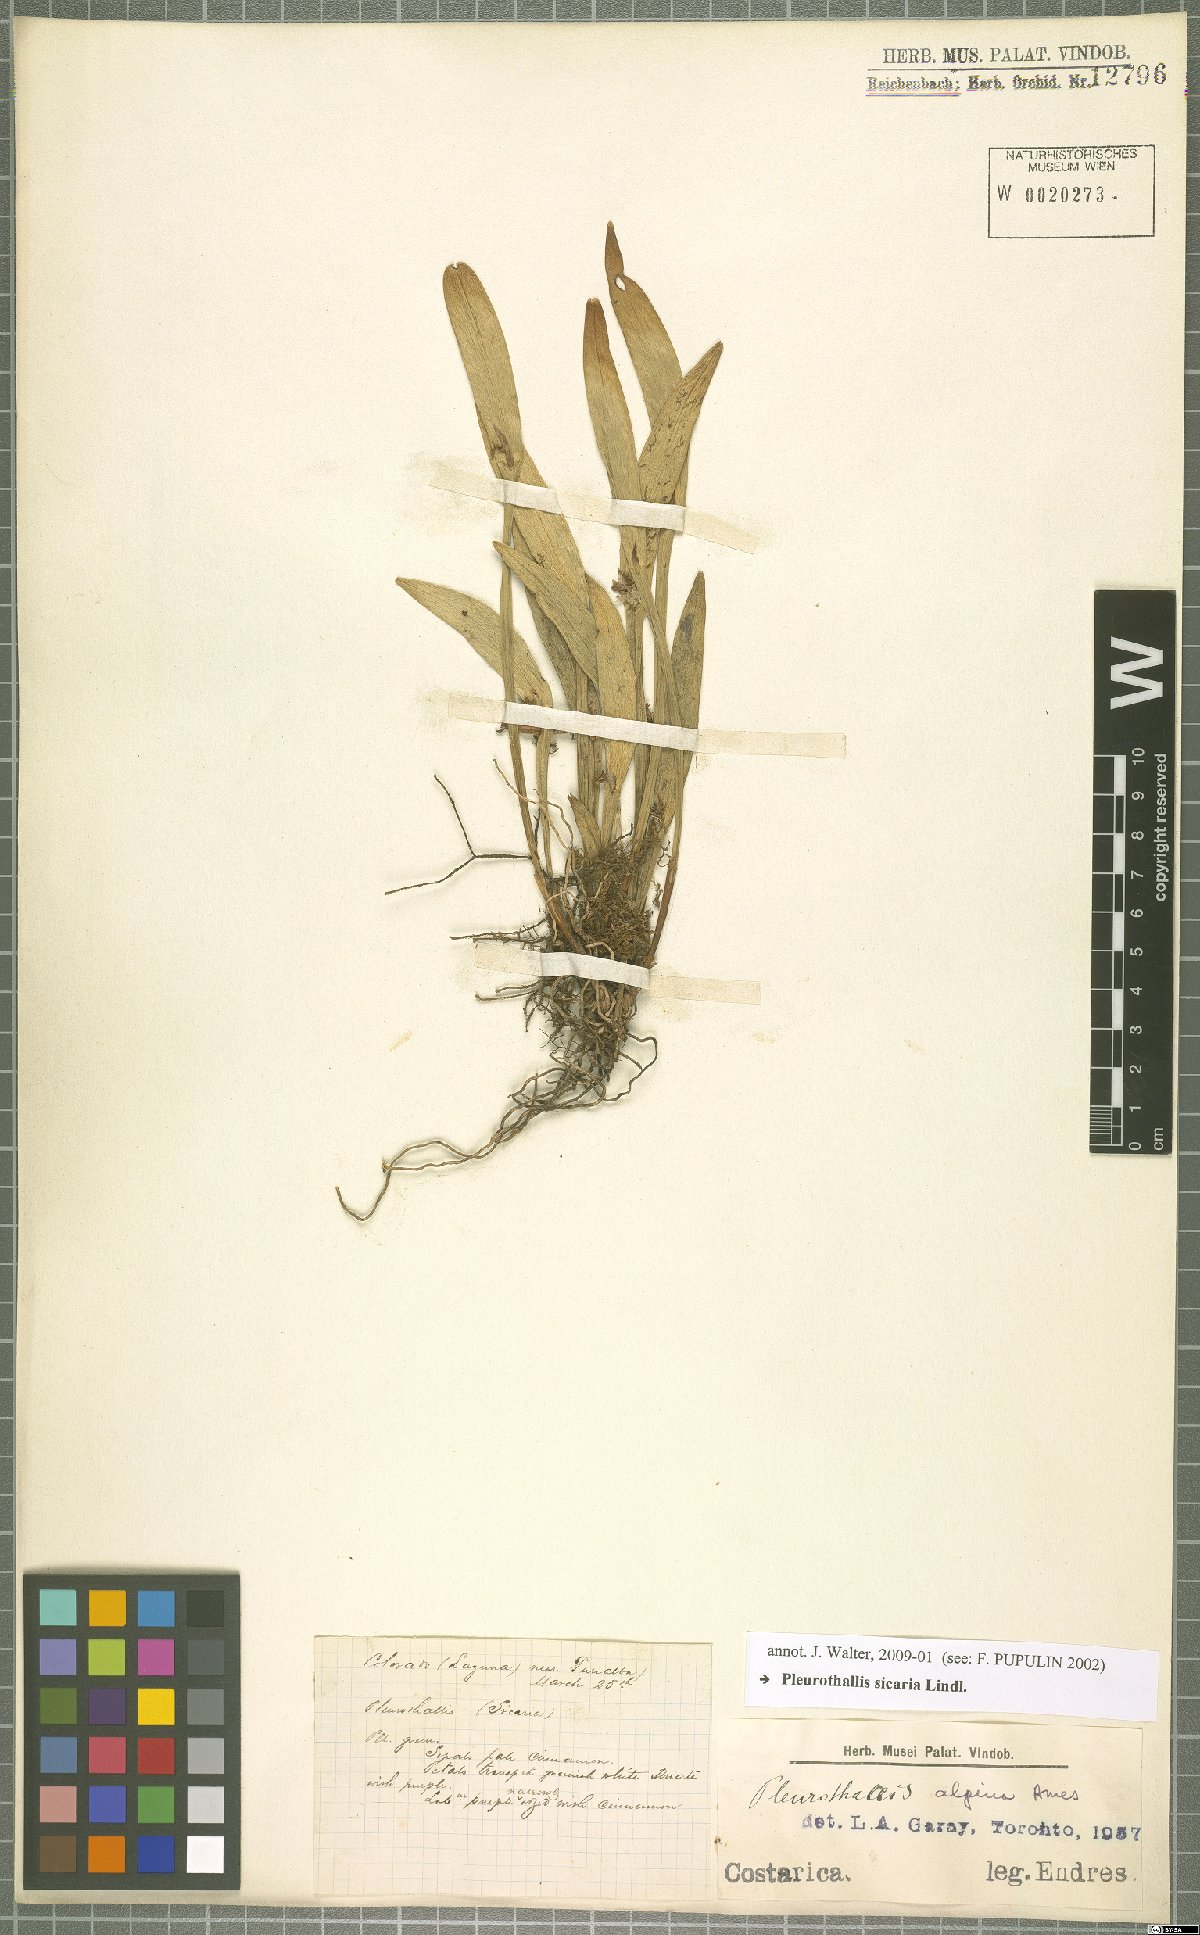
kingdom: Plantae
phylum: Tracheophyta
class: Liliopsida
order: Asparagales
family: Orchidaceae
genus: Acianthera
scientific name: Acianthera sicaria
